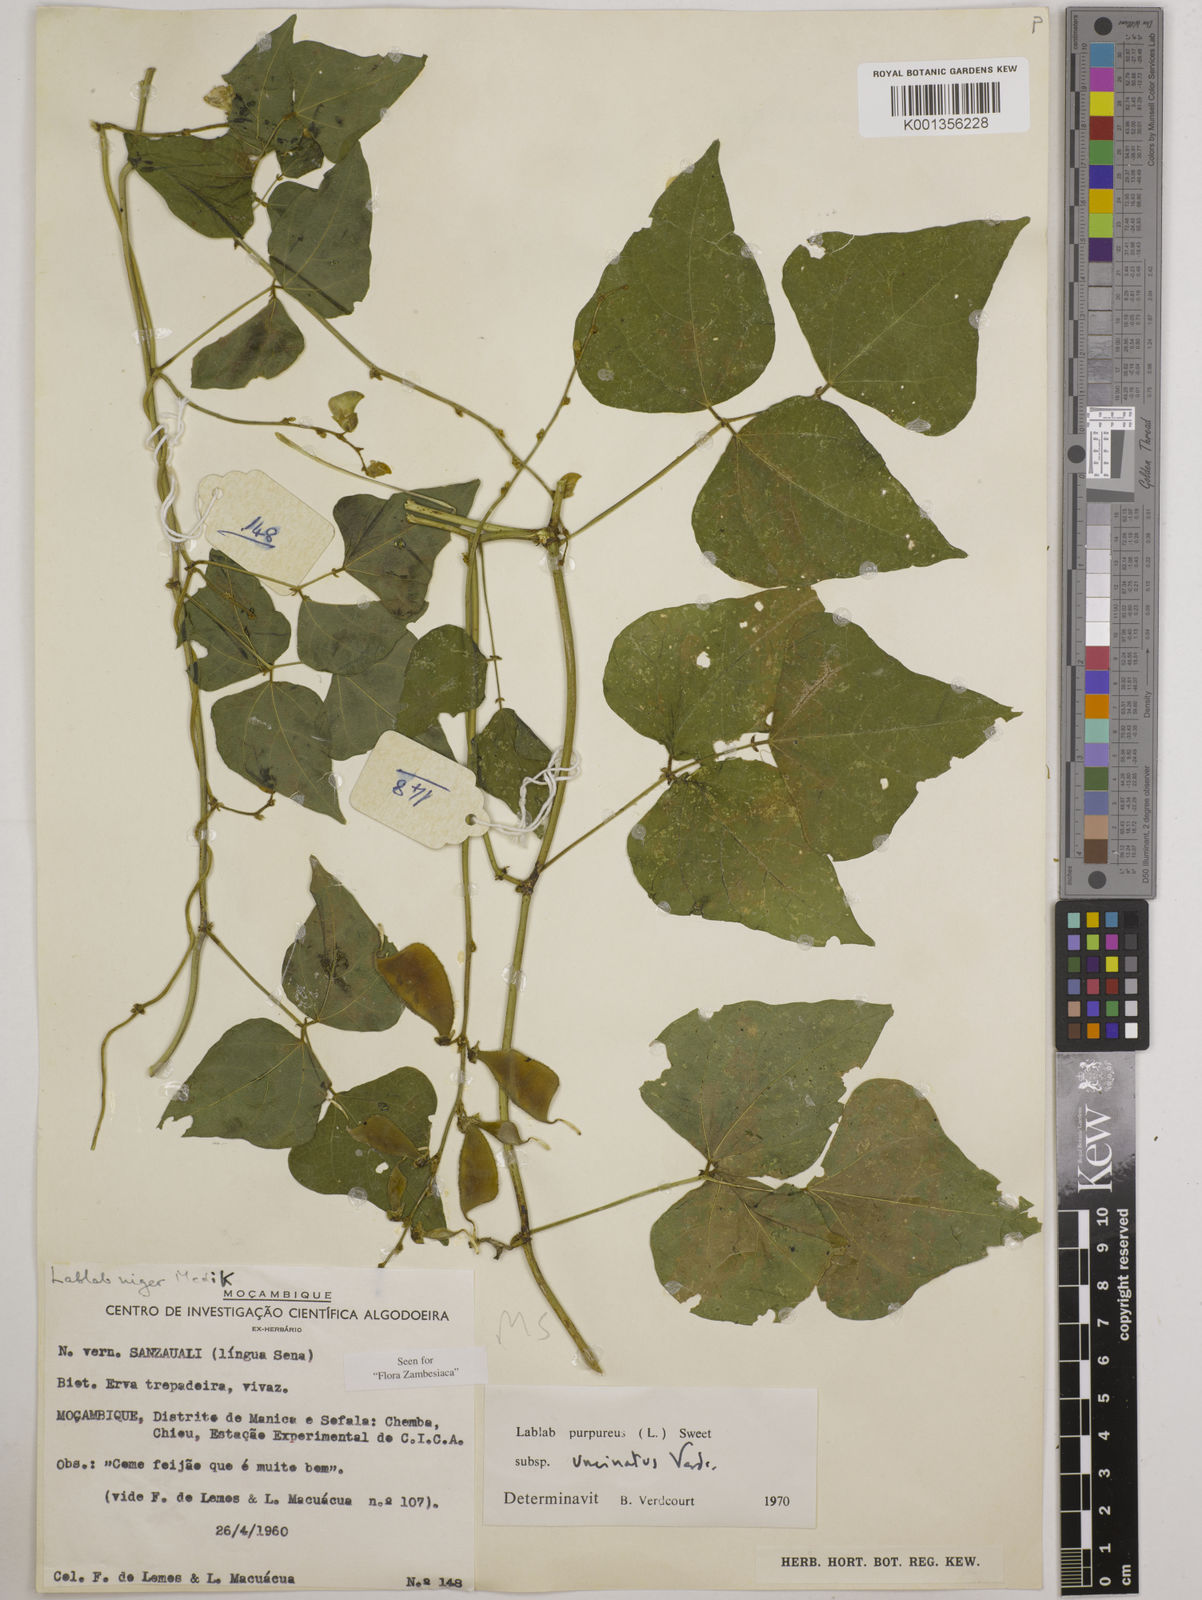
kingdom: Plantae
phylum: Tracheophyta
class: Magnoliopsida
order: Fabales
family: Fabaceae
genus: Lablab
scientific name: Lablab purpureus
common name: Lablab-bean
